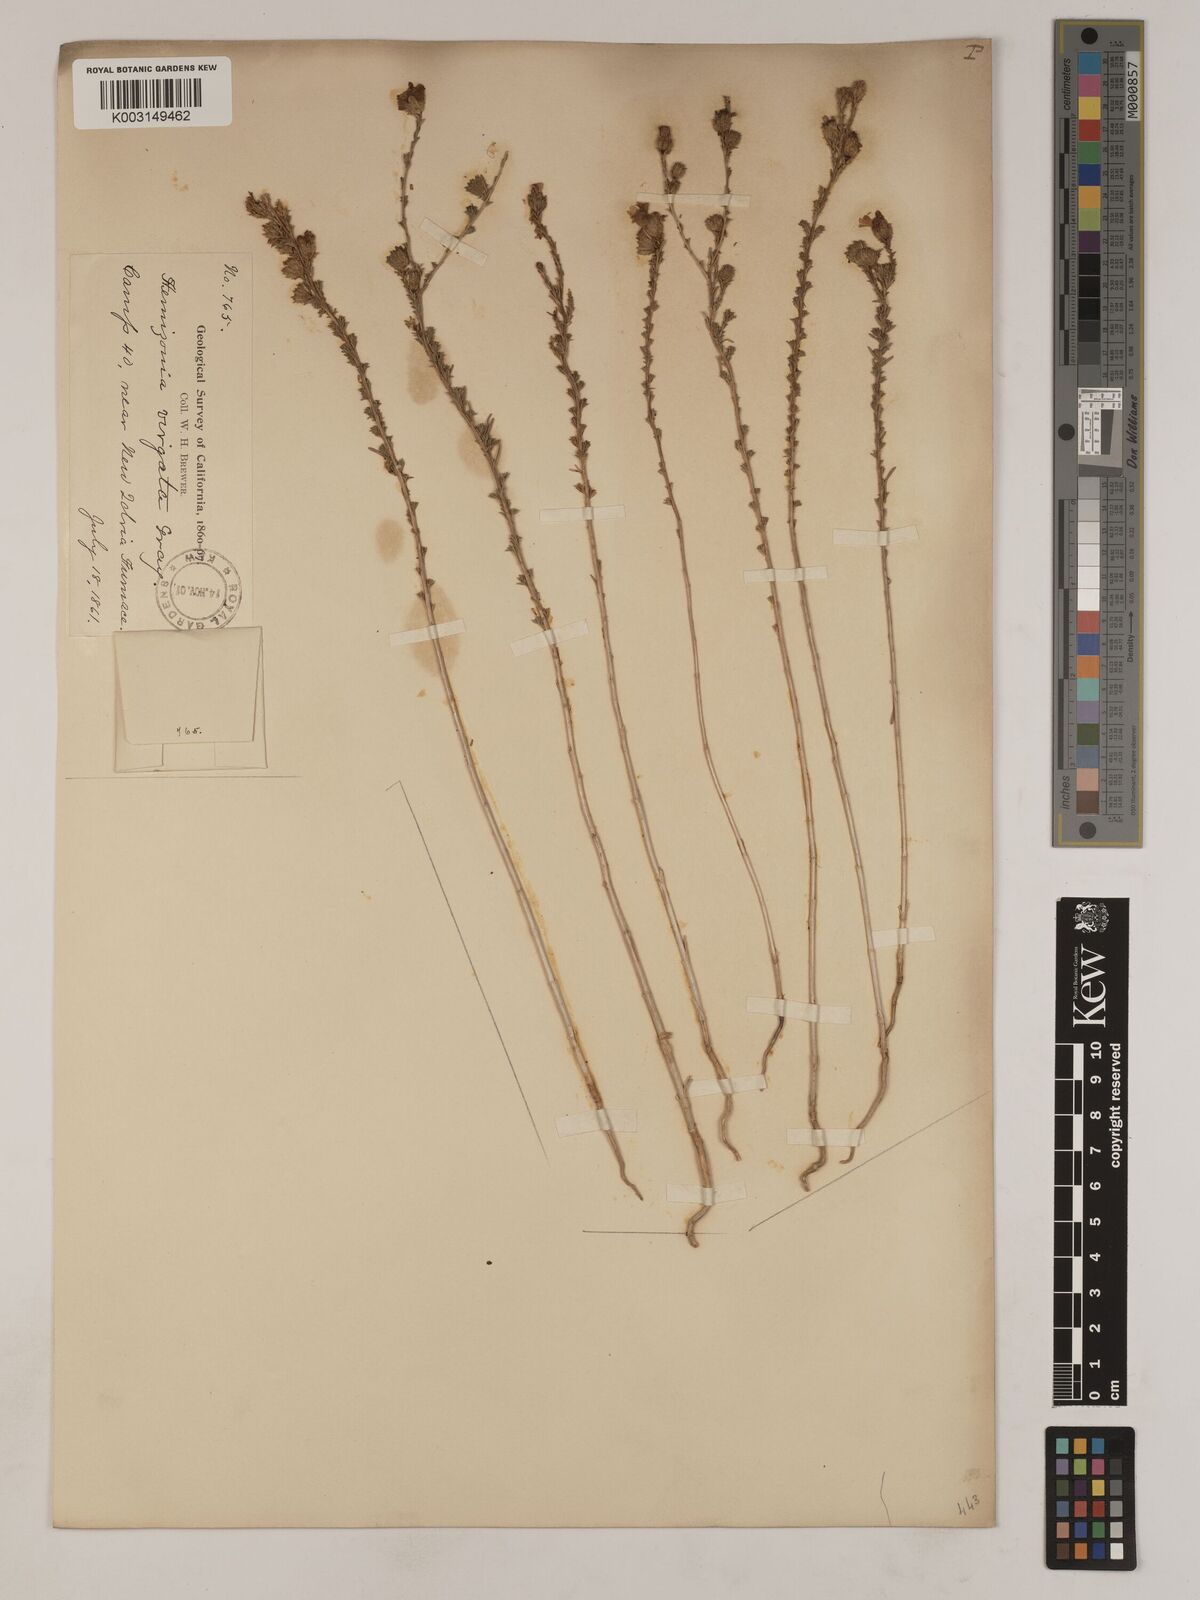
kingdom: Plantae
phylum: Tracheophyta
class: Magnoliopsida
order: Asterales
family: Asteraceae
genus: Holocarpha
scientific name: Holocarpha virgata
